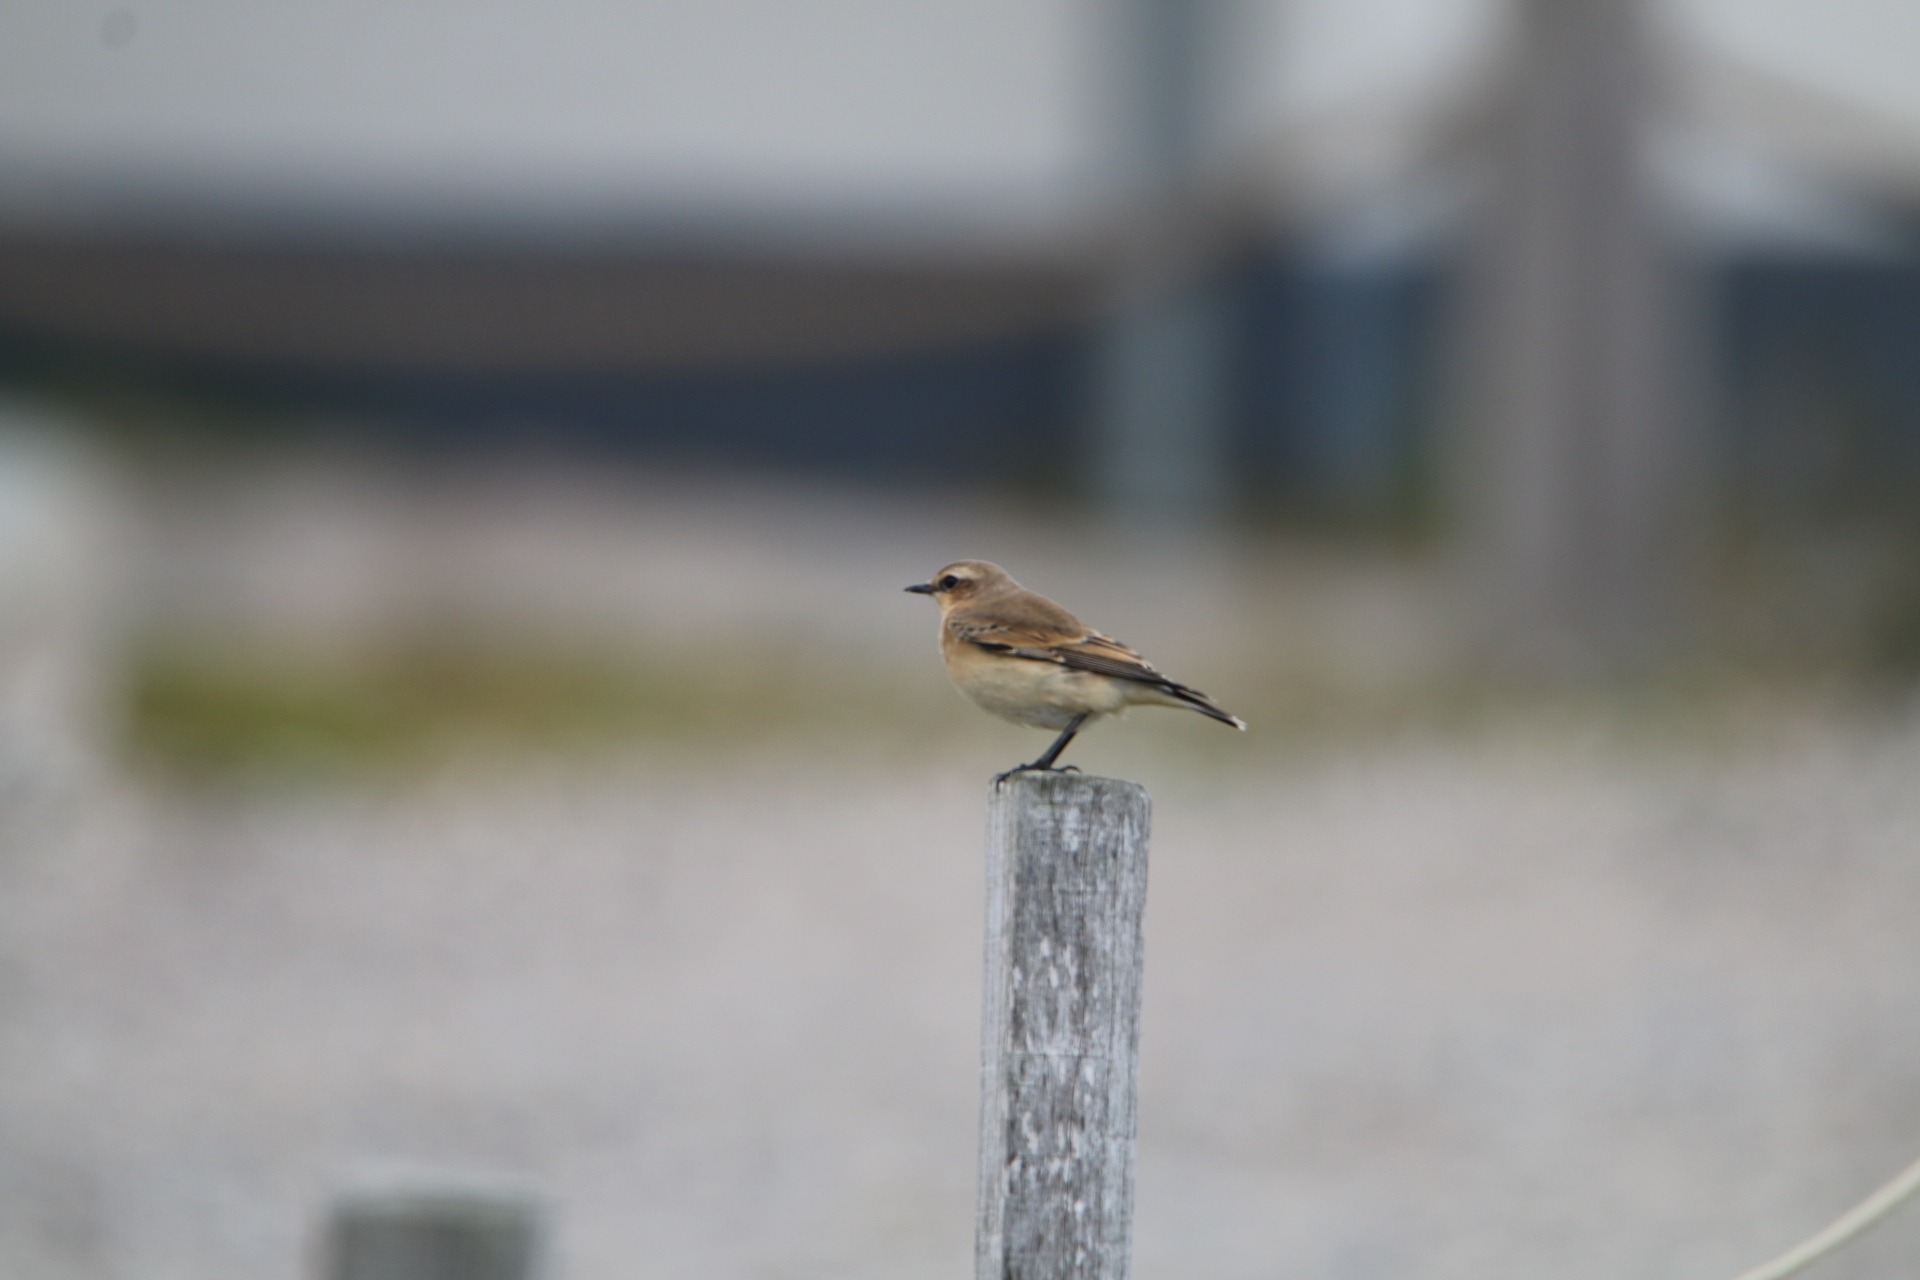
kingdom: Animalia
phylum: Chordata
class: Aves
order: Passeriformes
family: Muscicapidae
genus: Oenanthe
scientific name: Oenanthe oenanthe
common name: Stenpikker
